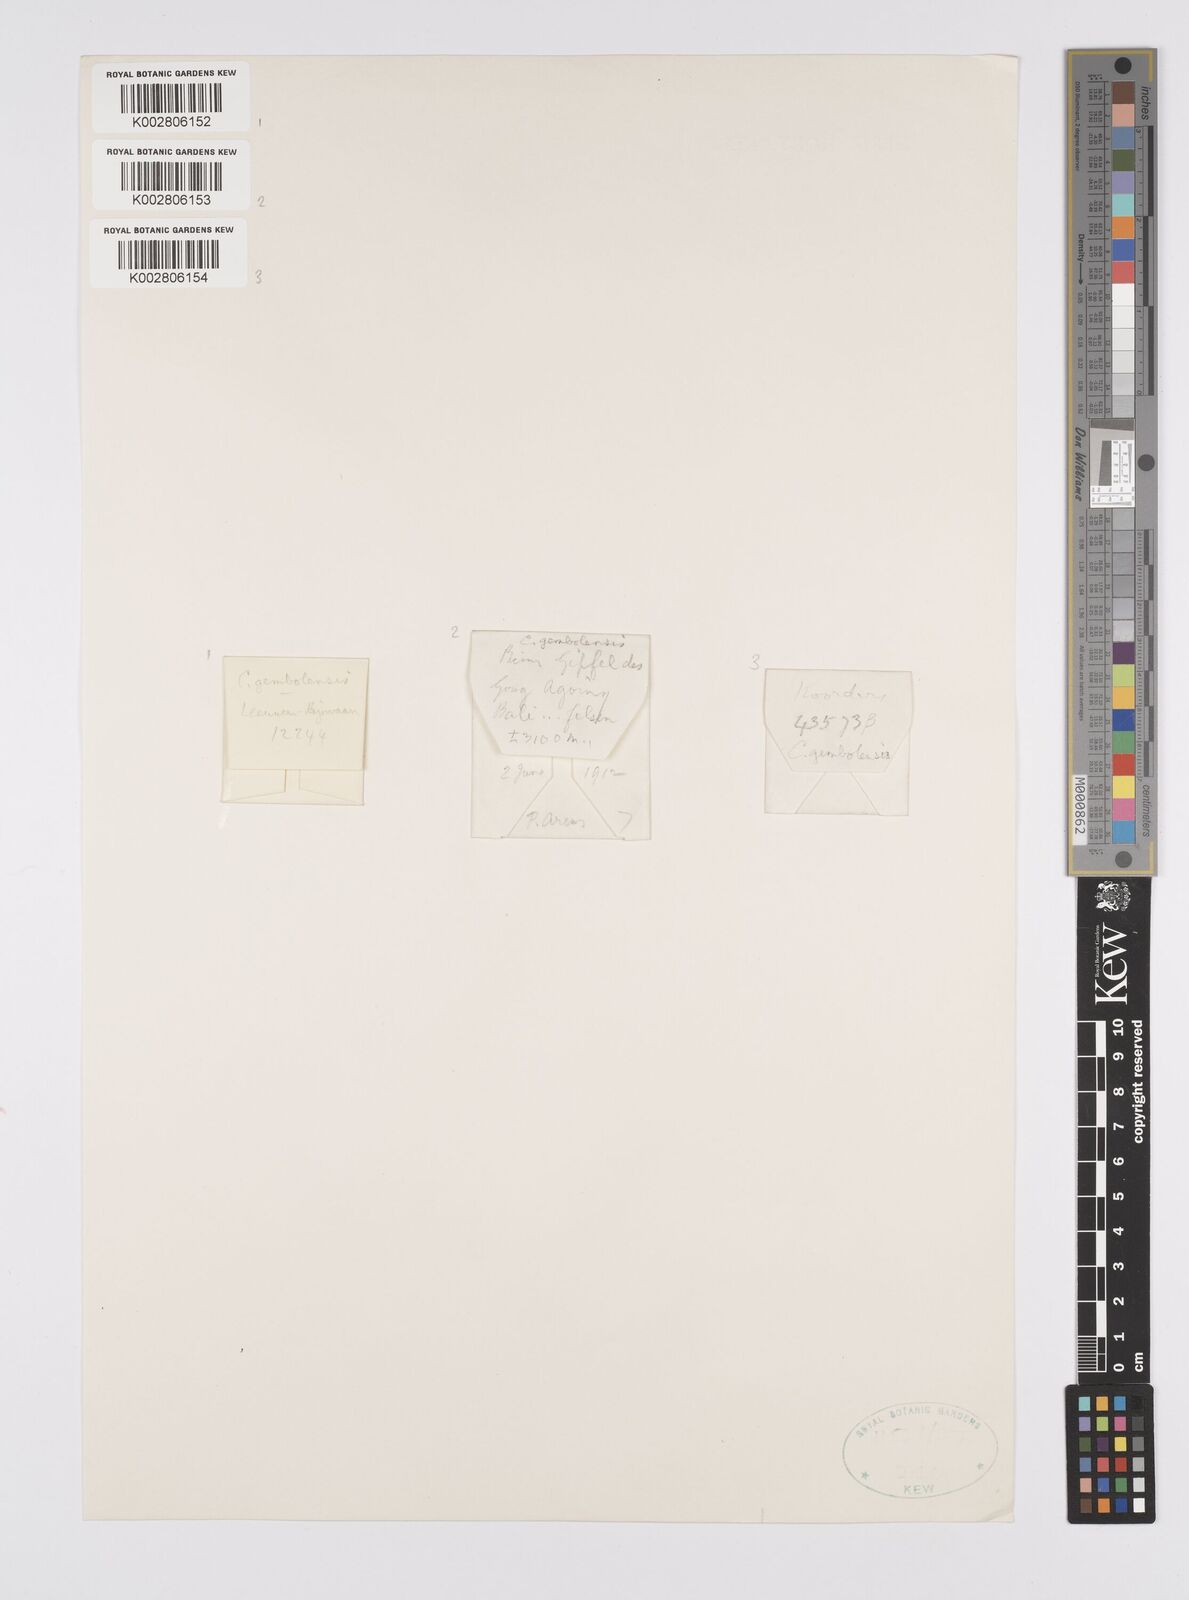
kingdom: Plantae
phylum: Tracheophyta
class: Liliopsida
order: Poales
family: Cyperaceae
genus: Carex
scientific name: Carex vesiculosa
